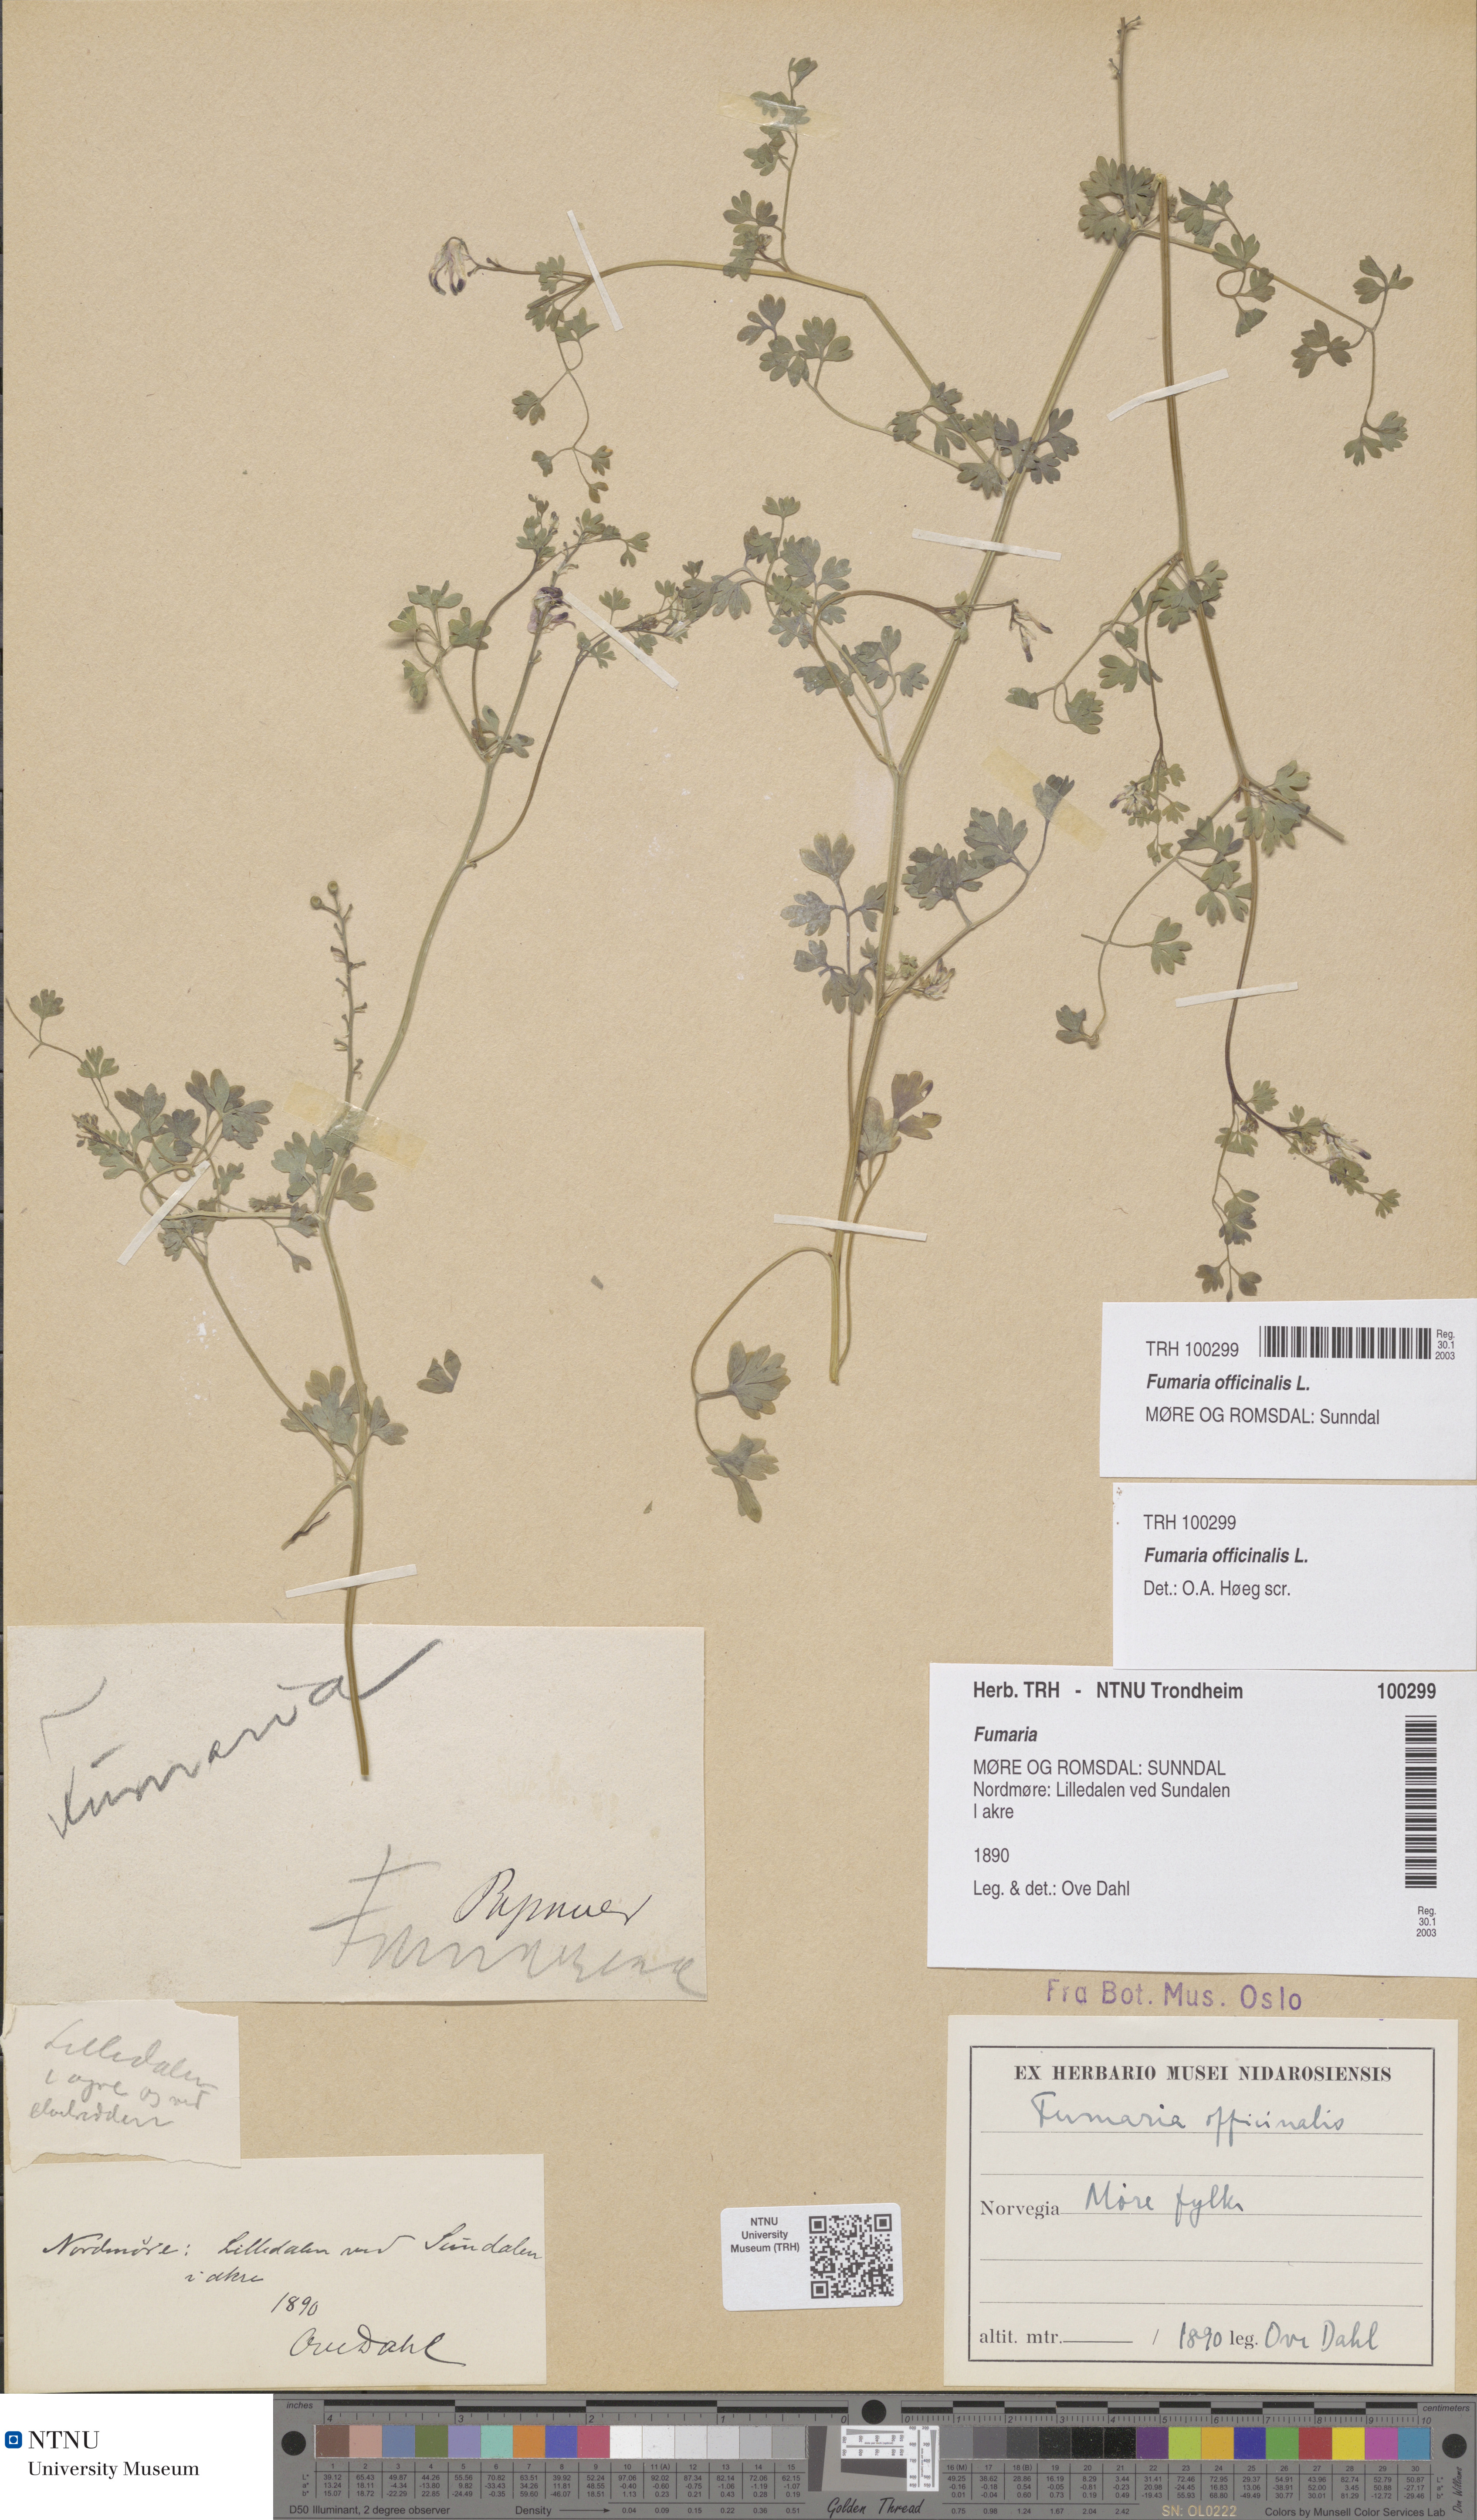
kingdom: Plantae
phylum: Tracheophyta
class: Magnoliopsida
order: Ranunculales
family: Papaveraceae
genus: Fumaria
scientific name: Fumaria officinalis
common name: Common fumitory
